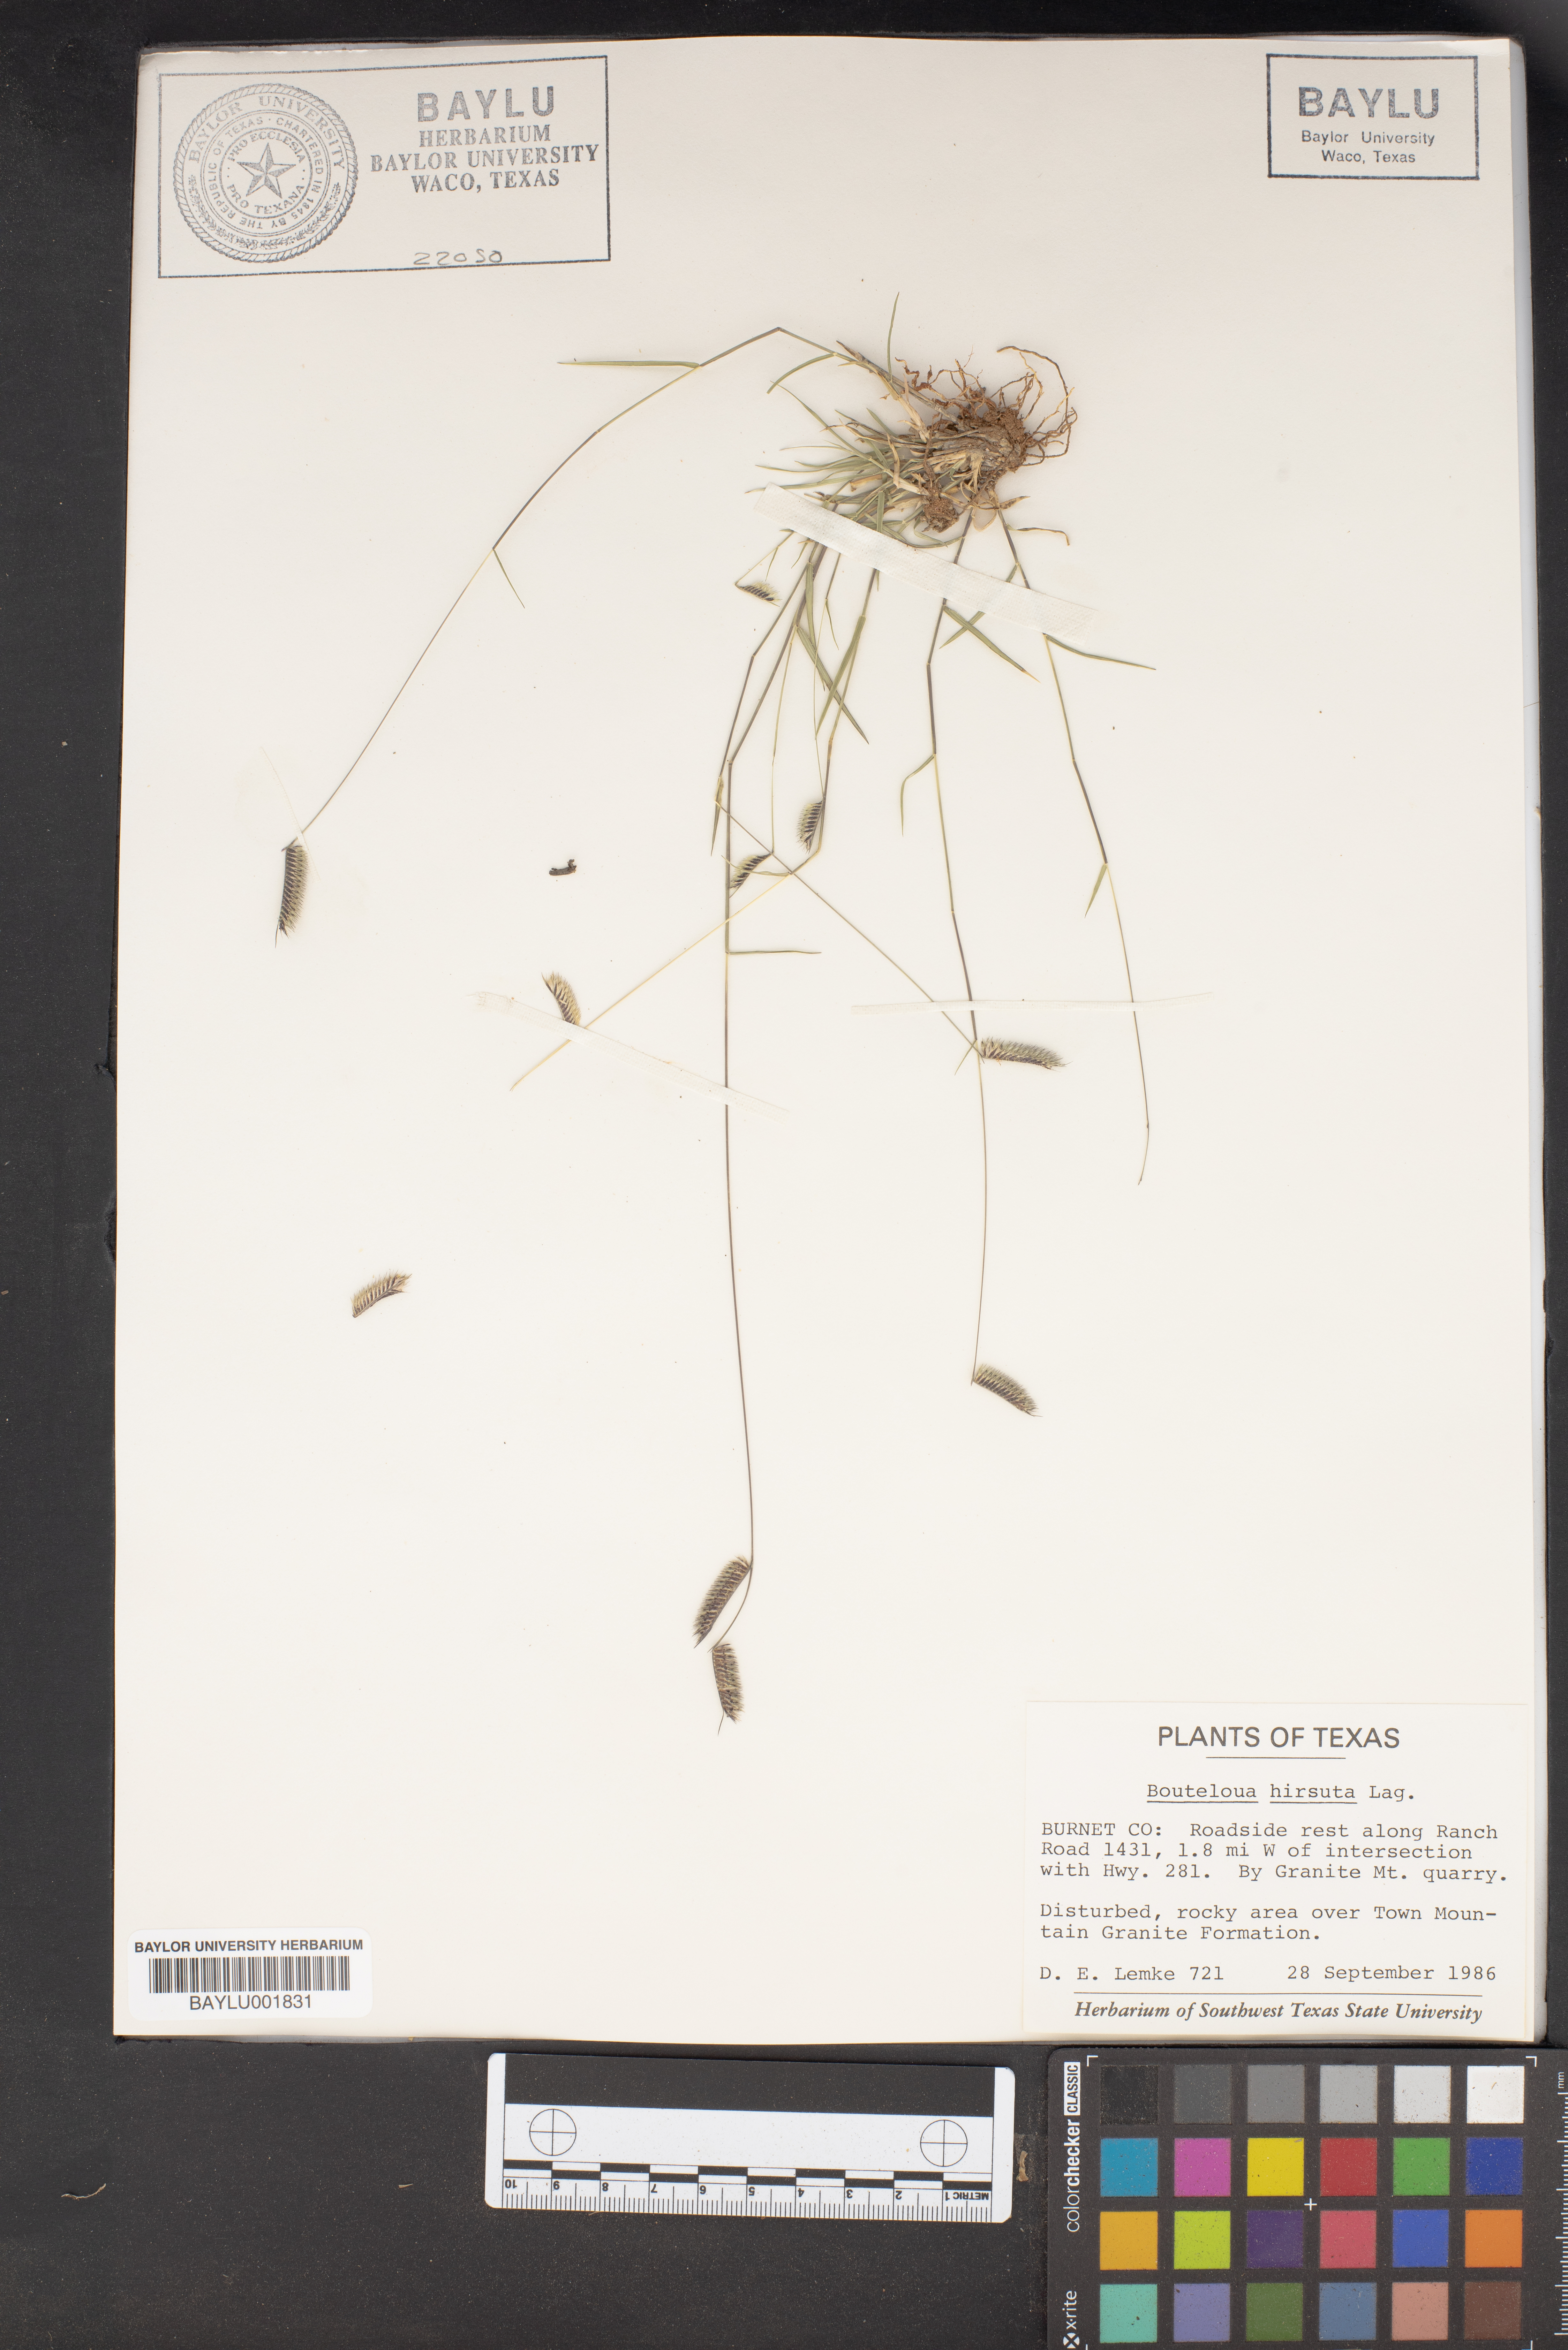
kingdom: Plantae
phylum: Tracheophyta
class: Liliopsida
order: Poales
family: Poaceae
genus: Bouteloua
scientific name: Bouteloua hirsuta
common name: Hairy grama
